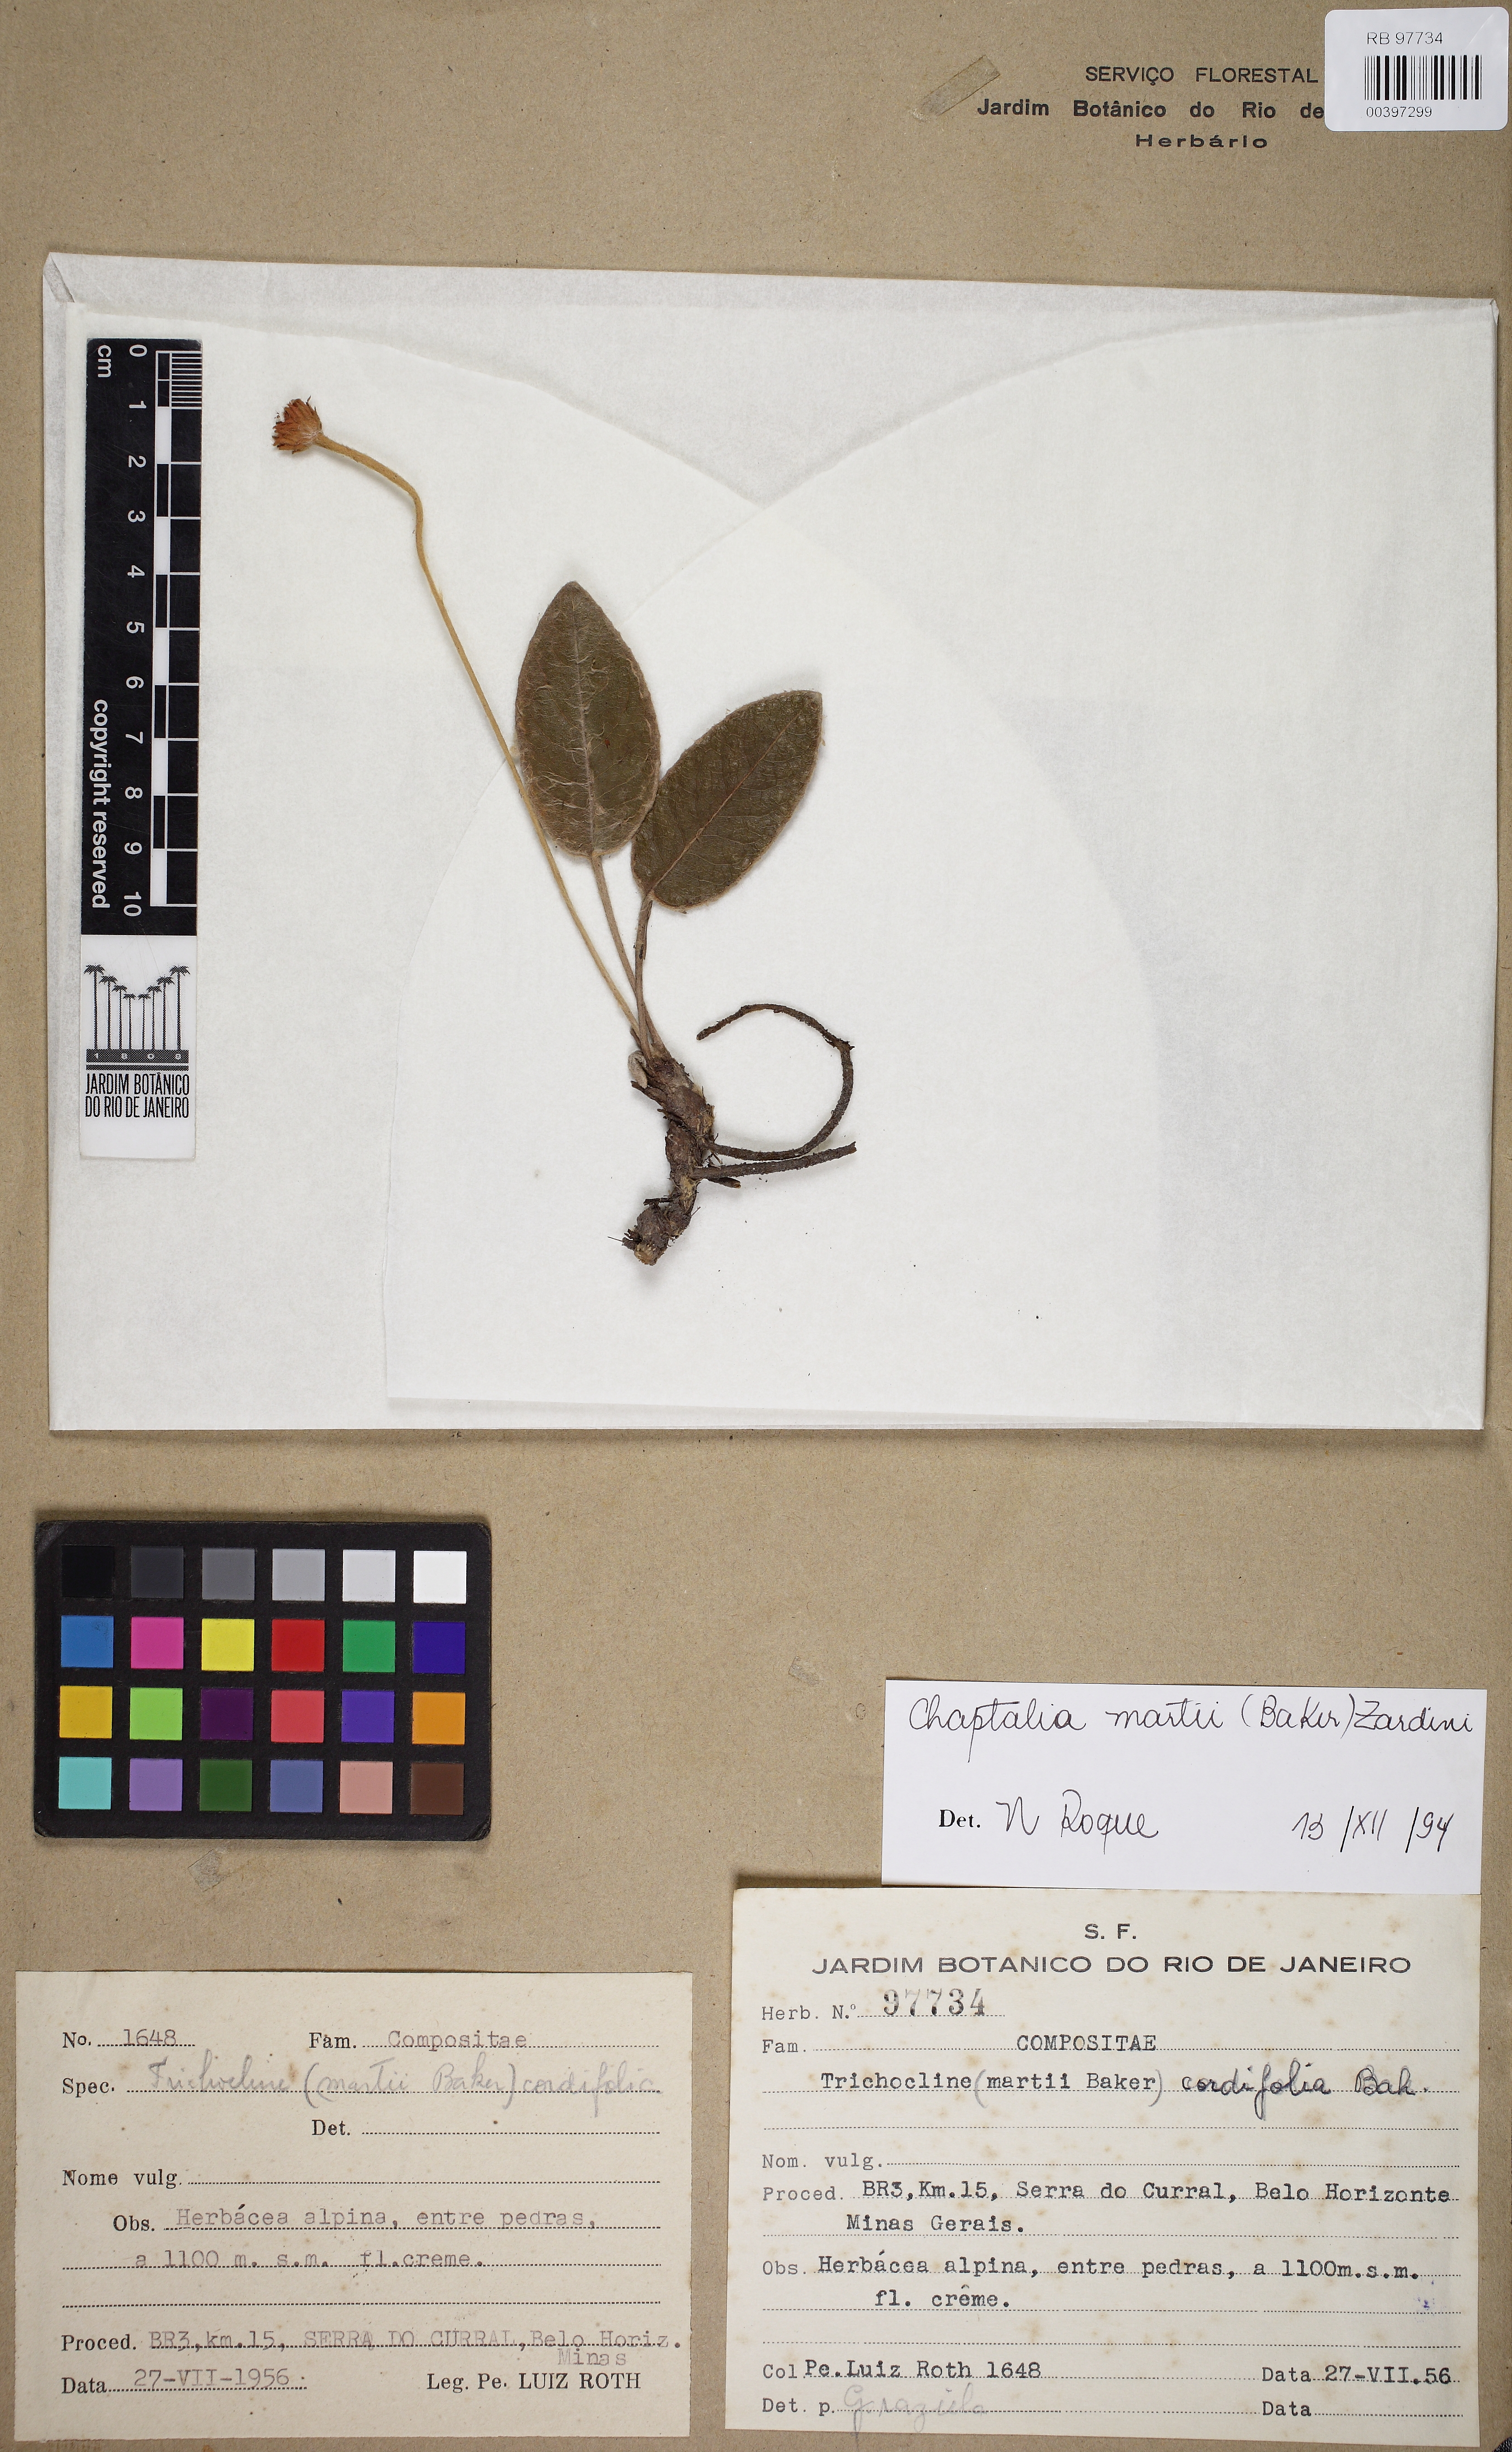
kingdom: Plantae
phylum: Tracheophyta
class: Magnoliopsida
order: Asterales
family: Asteraceae
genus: Chaptalia
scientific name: Chaptalia martii
